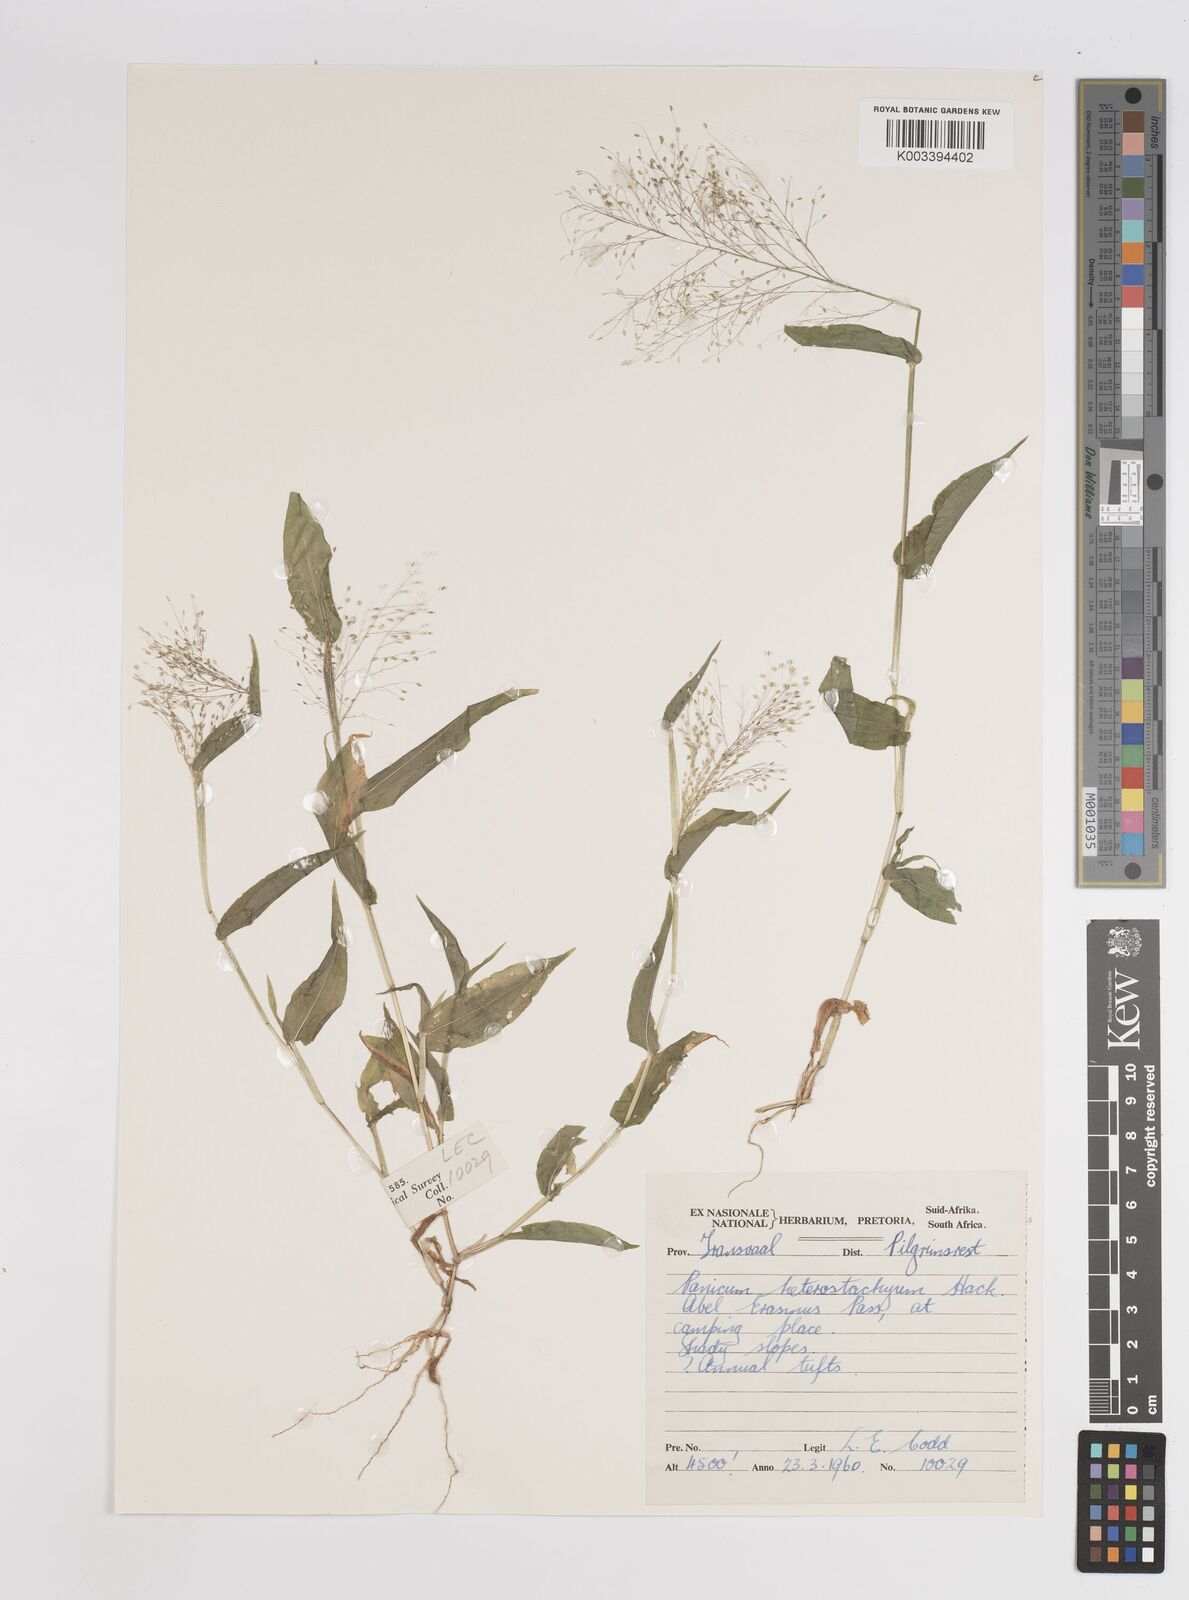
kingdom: Plantae
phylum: Tracheophyta
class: Liliopsida
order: Poales
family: Poaceae
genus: Panicum
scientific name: Panicum hirtum
